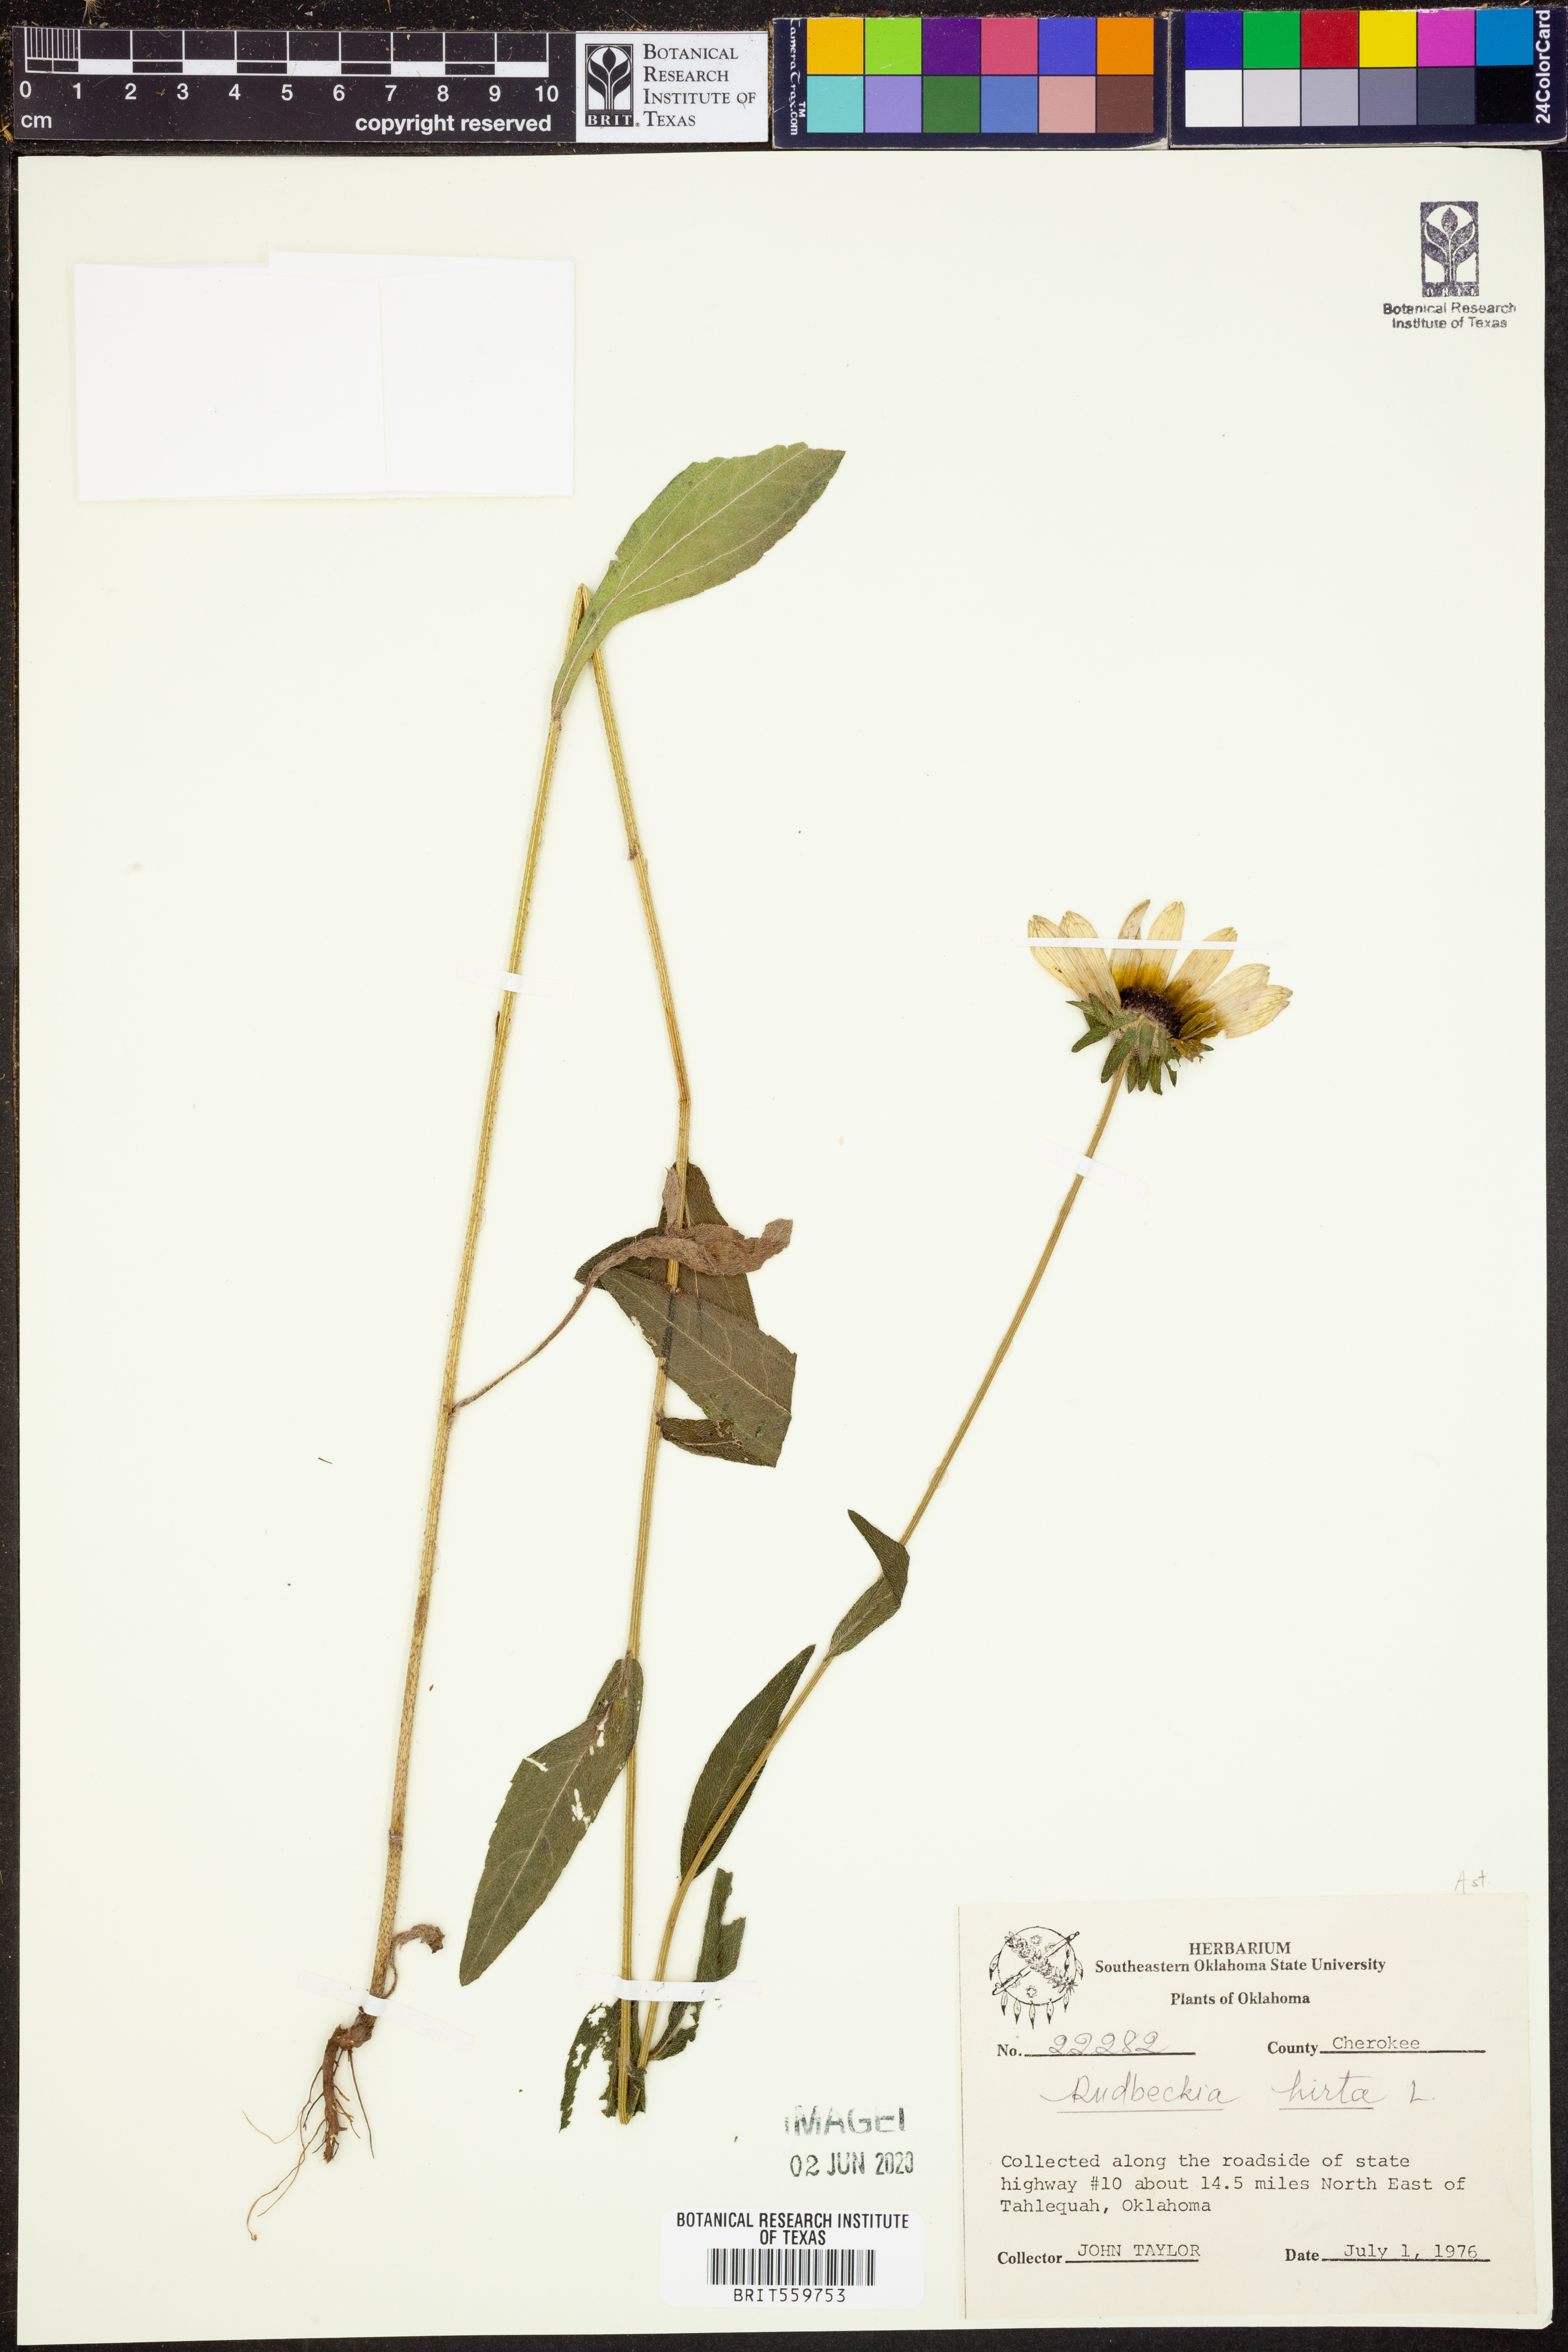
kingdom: Plantae
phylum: Tracheophyta
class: Magnoliopsida
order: Asterales
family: Asteraceae
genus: Rudbeckia
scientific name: Rudbeckia hirta
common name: Black-eyed-susan
